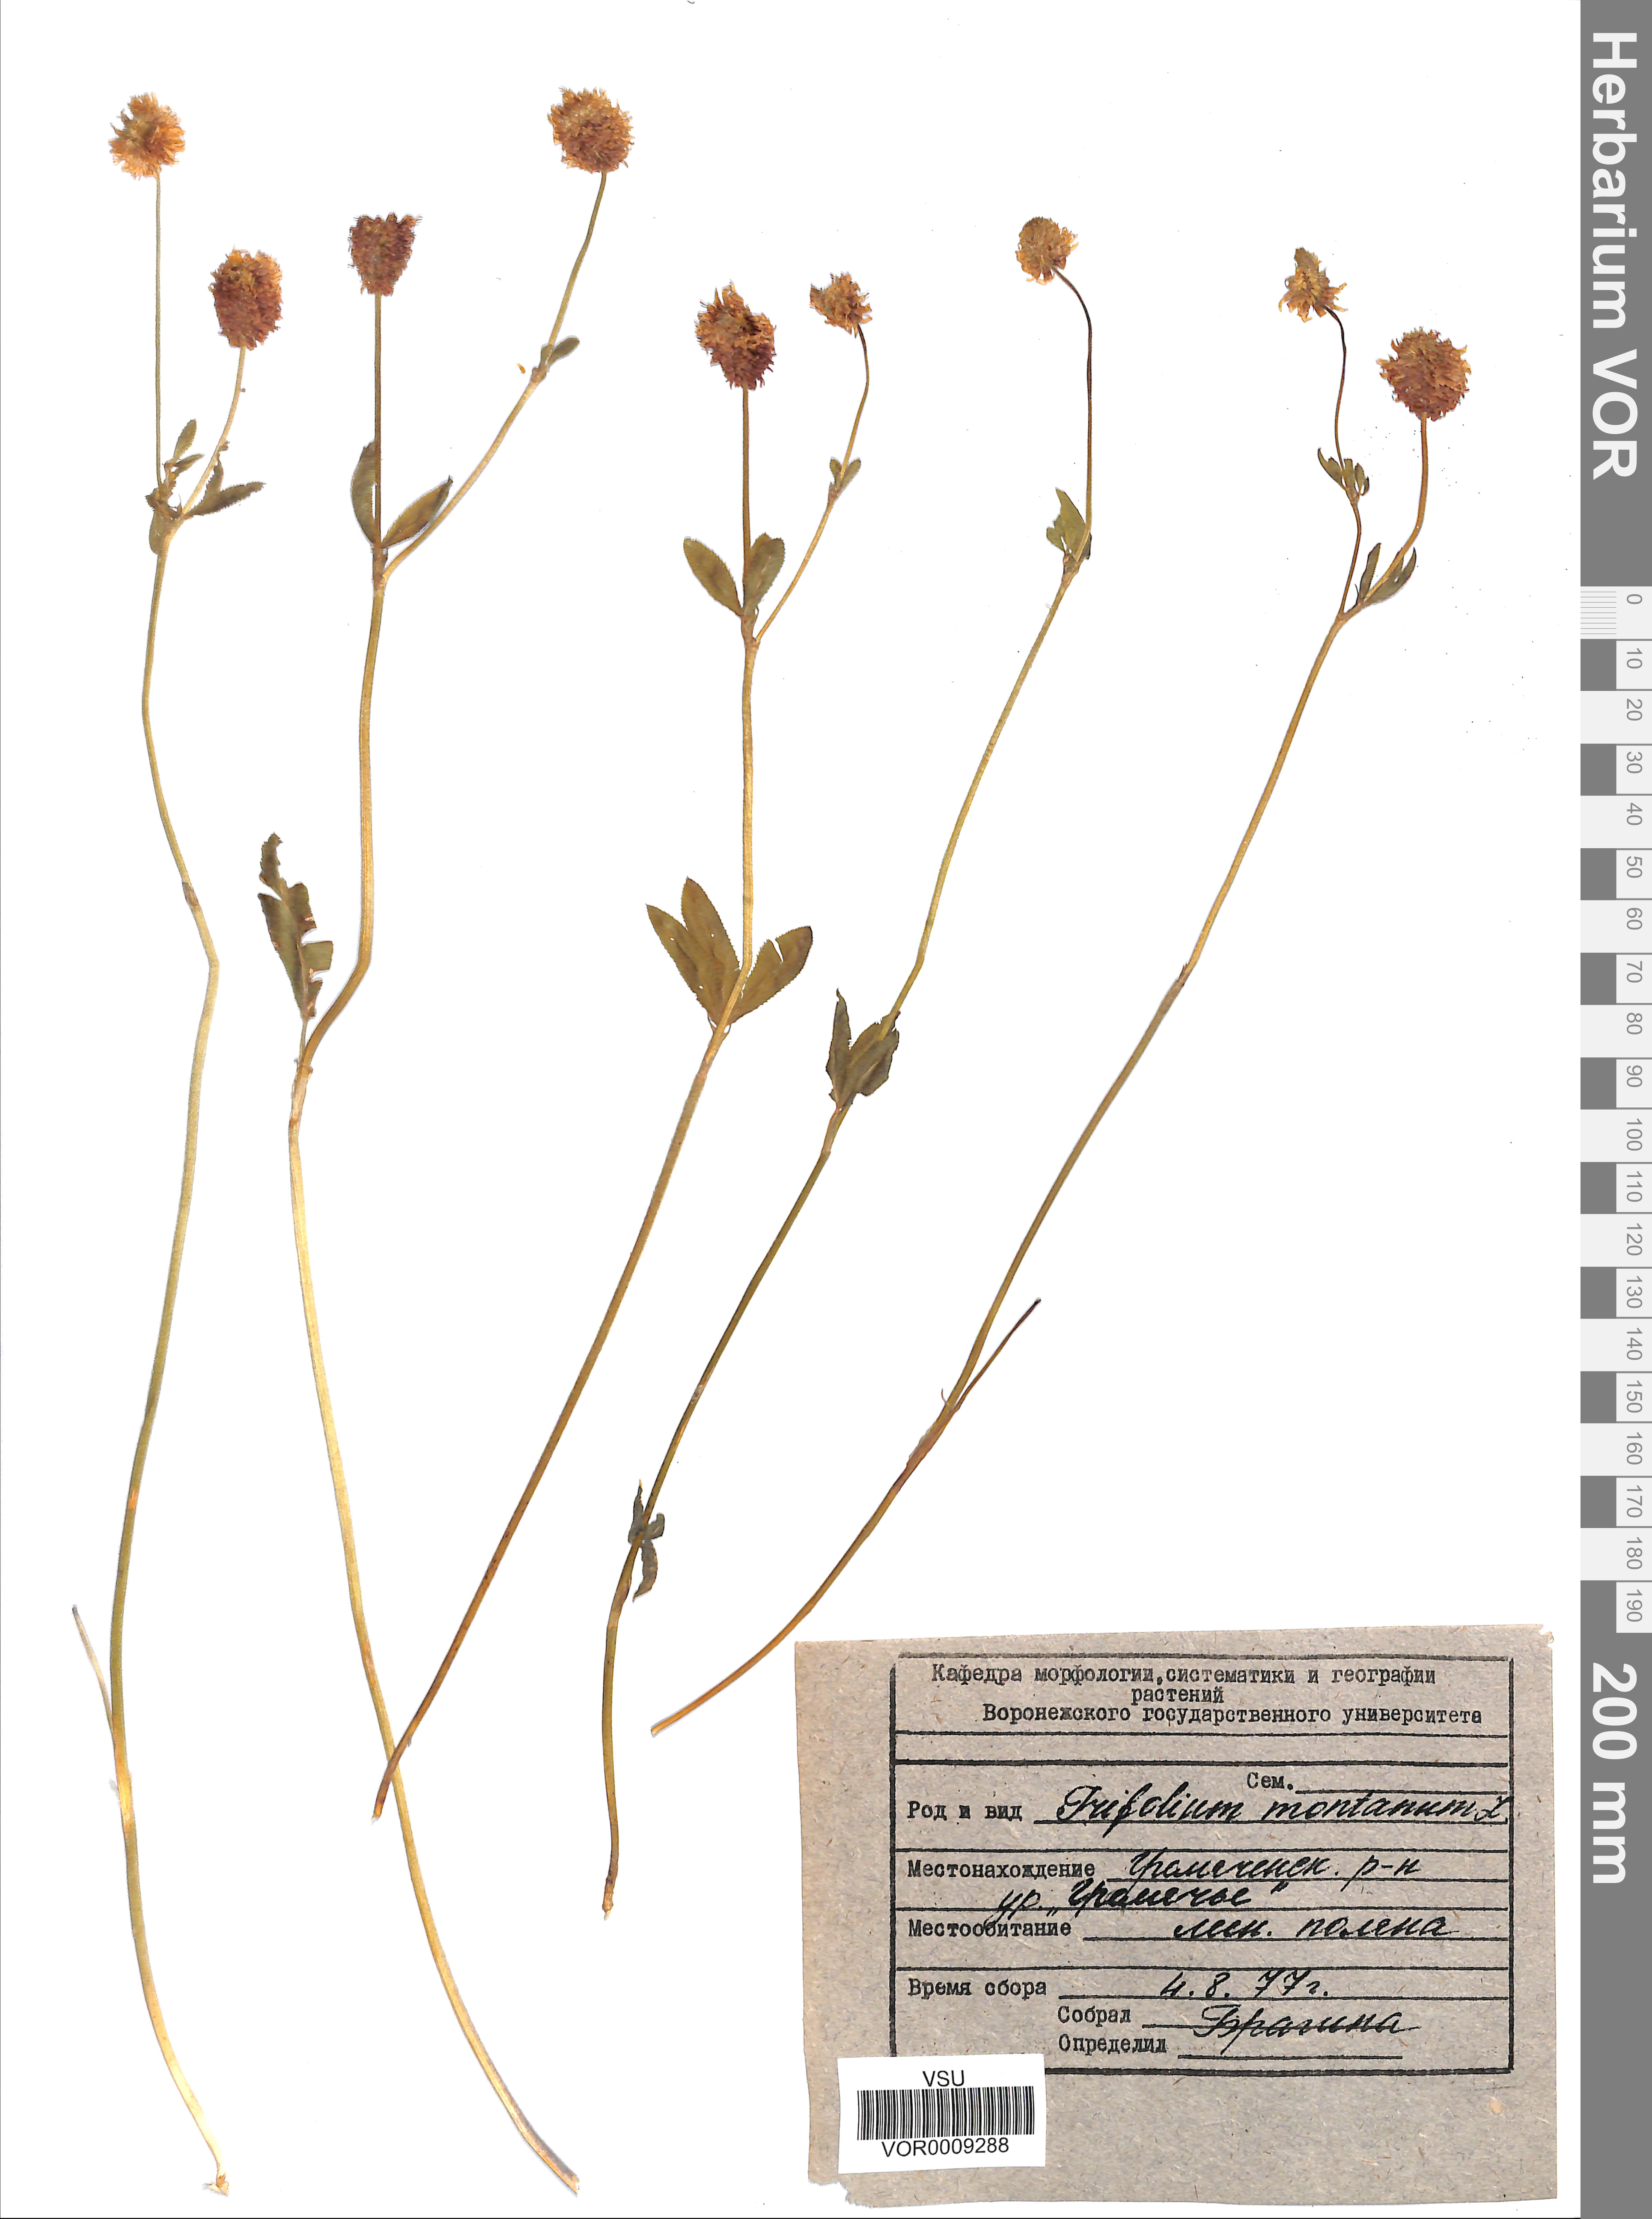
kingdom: Plantae
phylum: Tracheophyta
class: Magnoliopsida
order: Fabales
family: Fabaceae
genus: Trifolium
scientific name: Trifolium montanum
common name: Mountain clover
